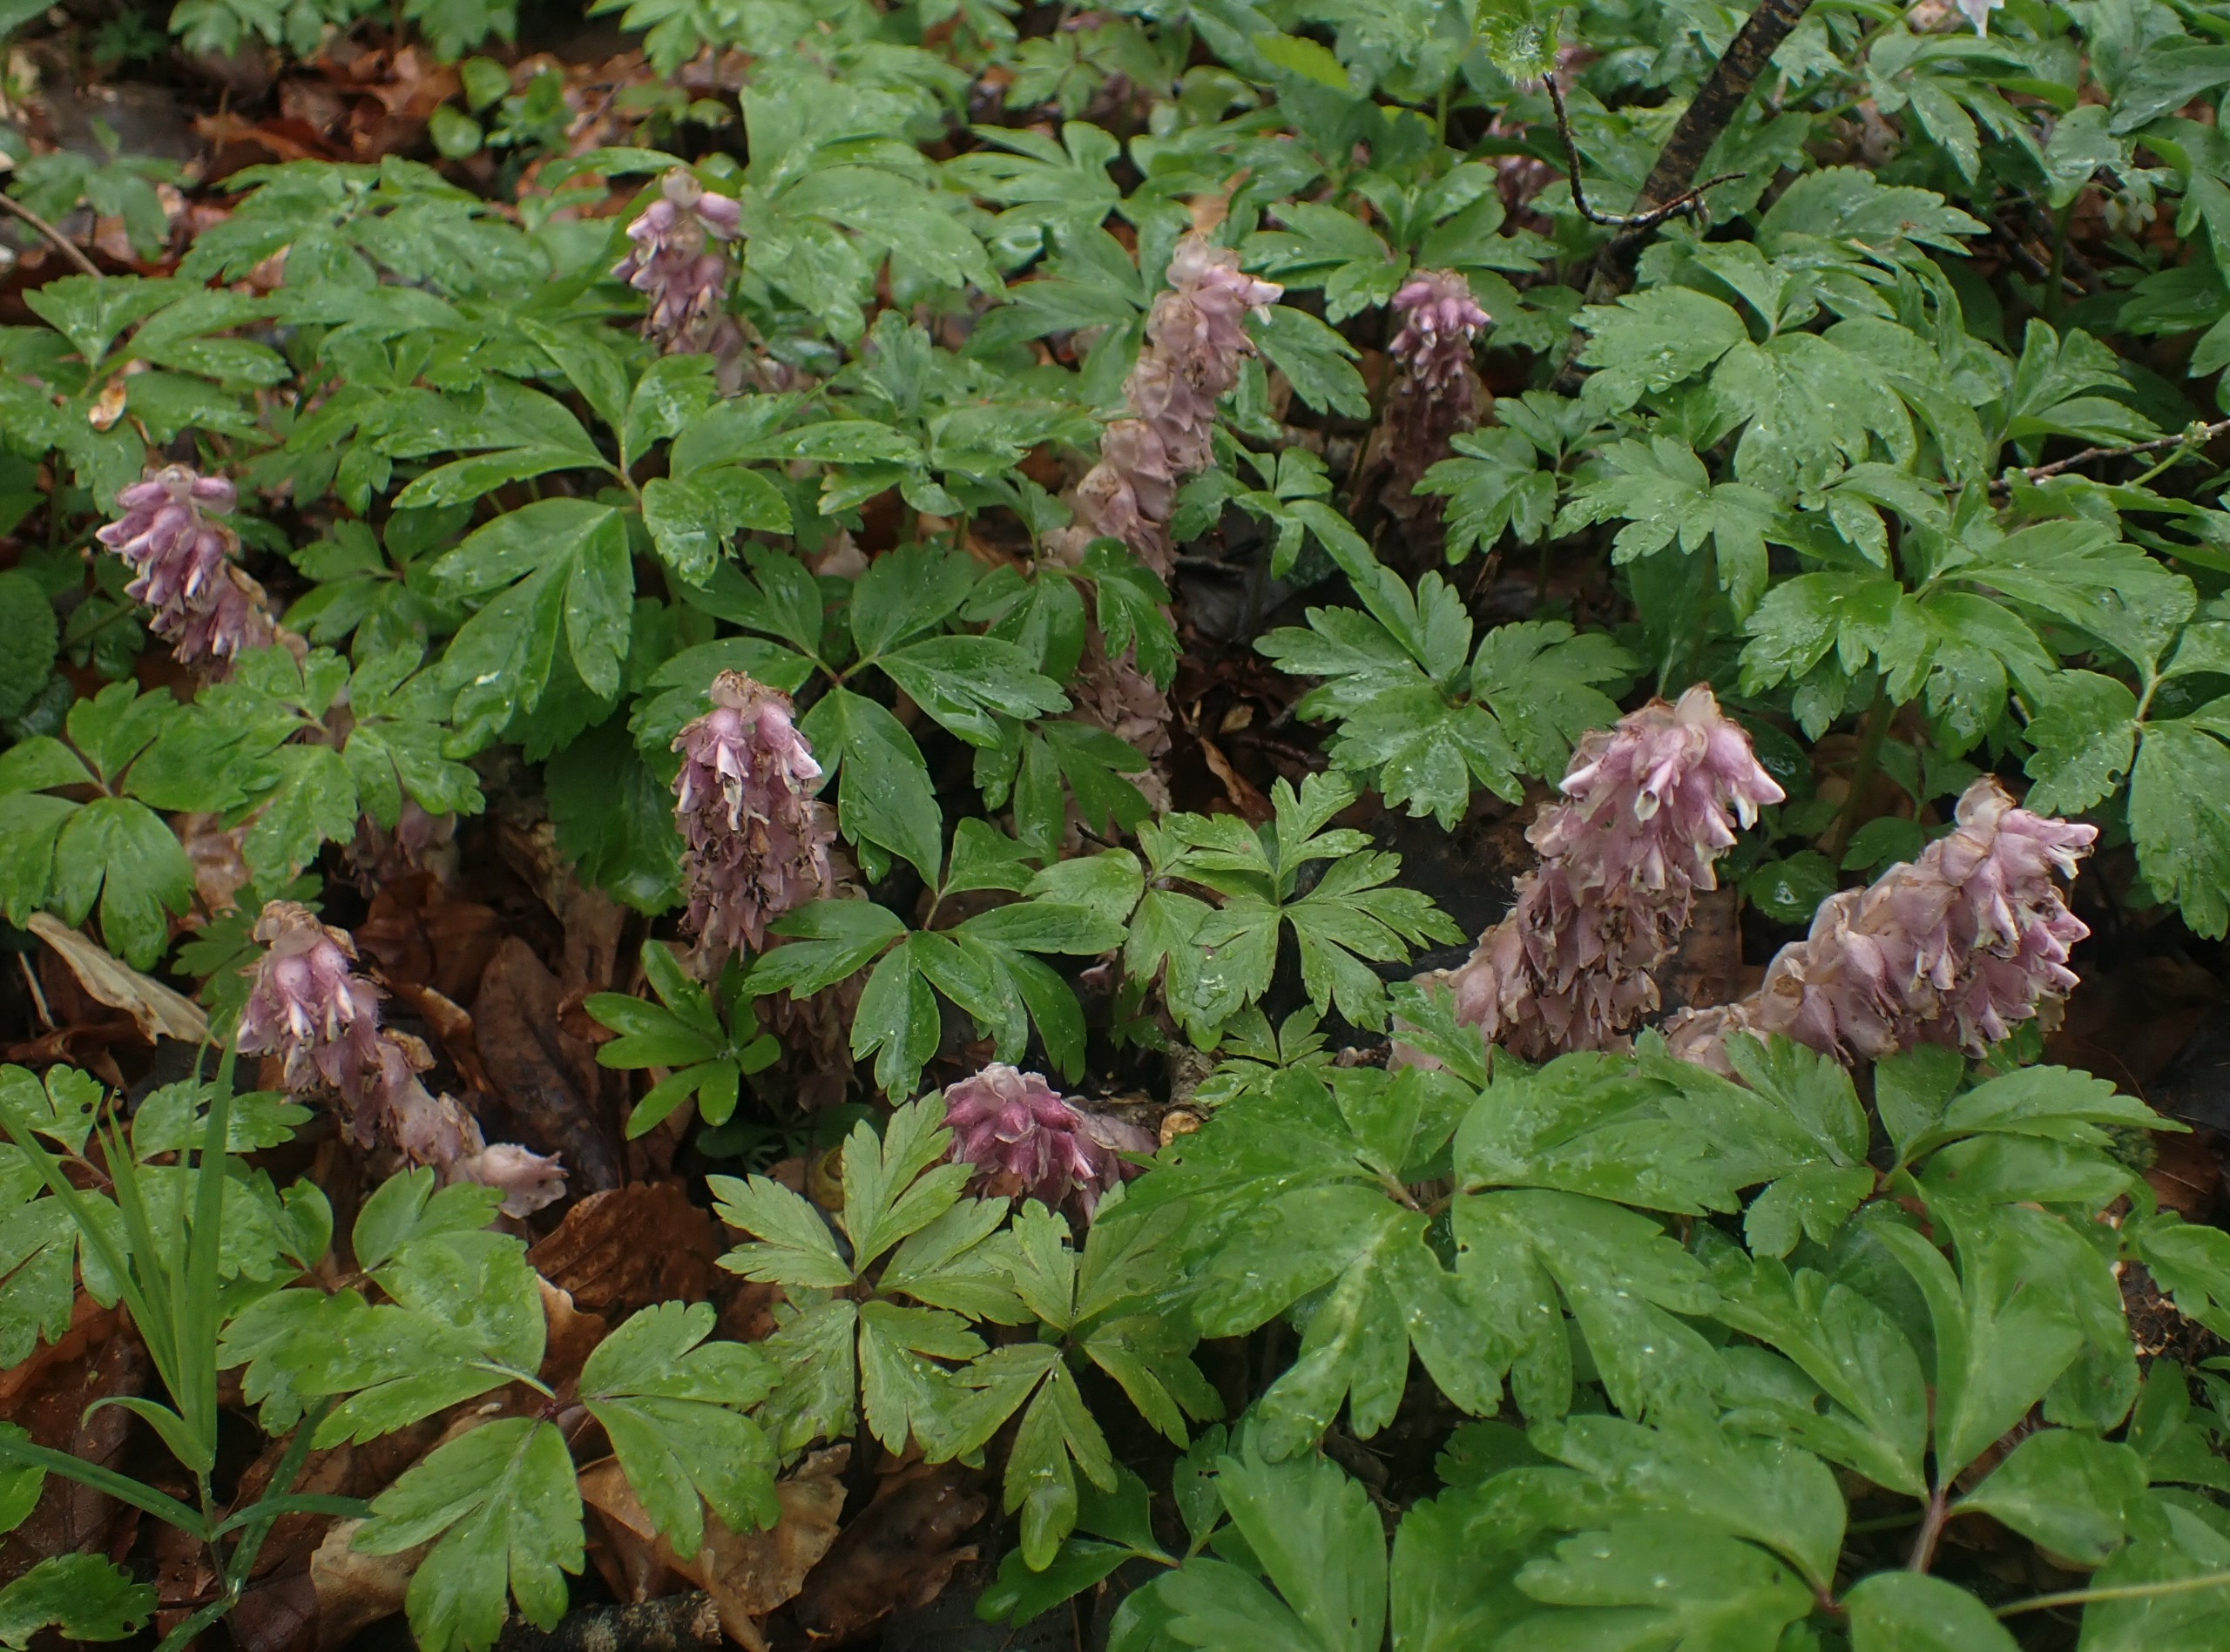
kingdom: Plantae
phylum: Tracheophyta
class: Magnoliopsida
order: Lamiales
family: Orobanchaceae
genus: Lathraea
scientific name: Lathraea squamaria
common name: Skælrod
